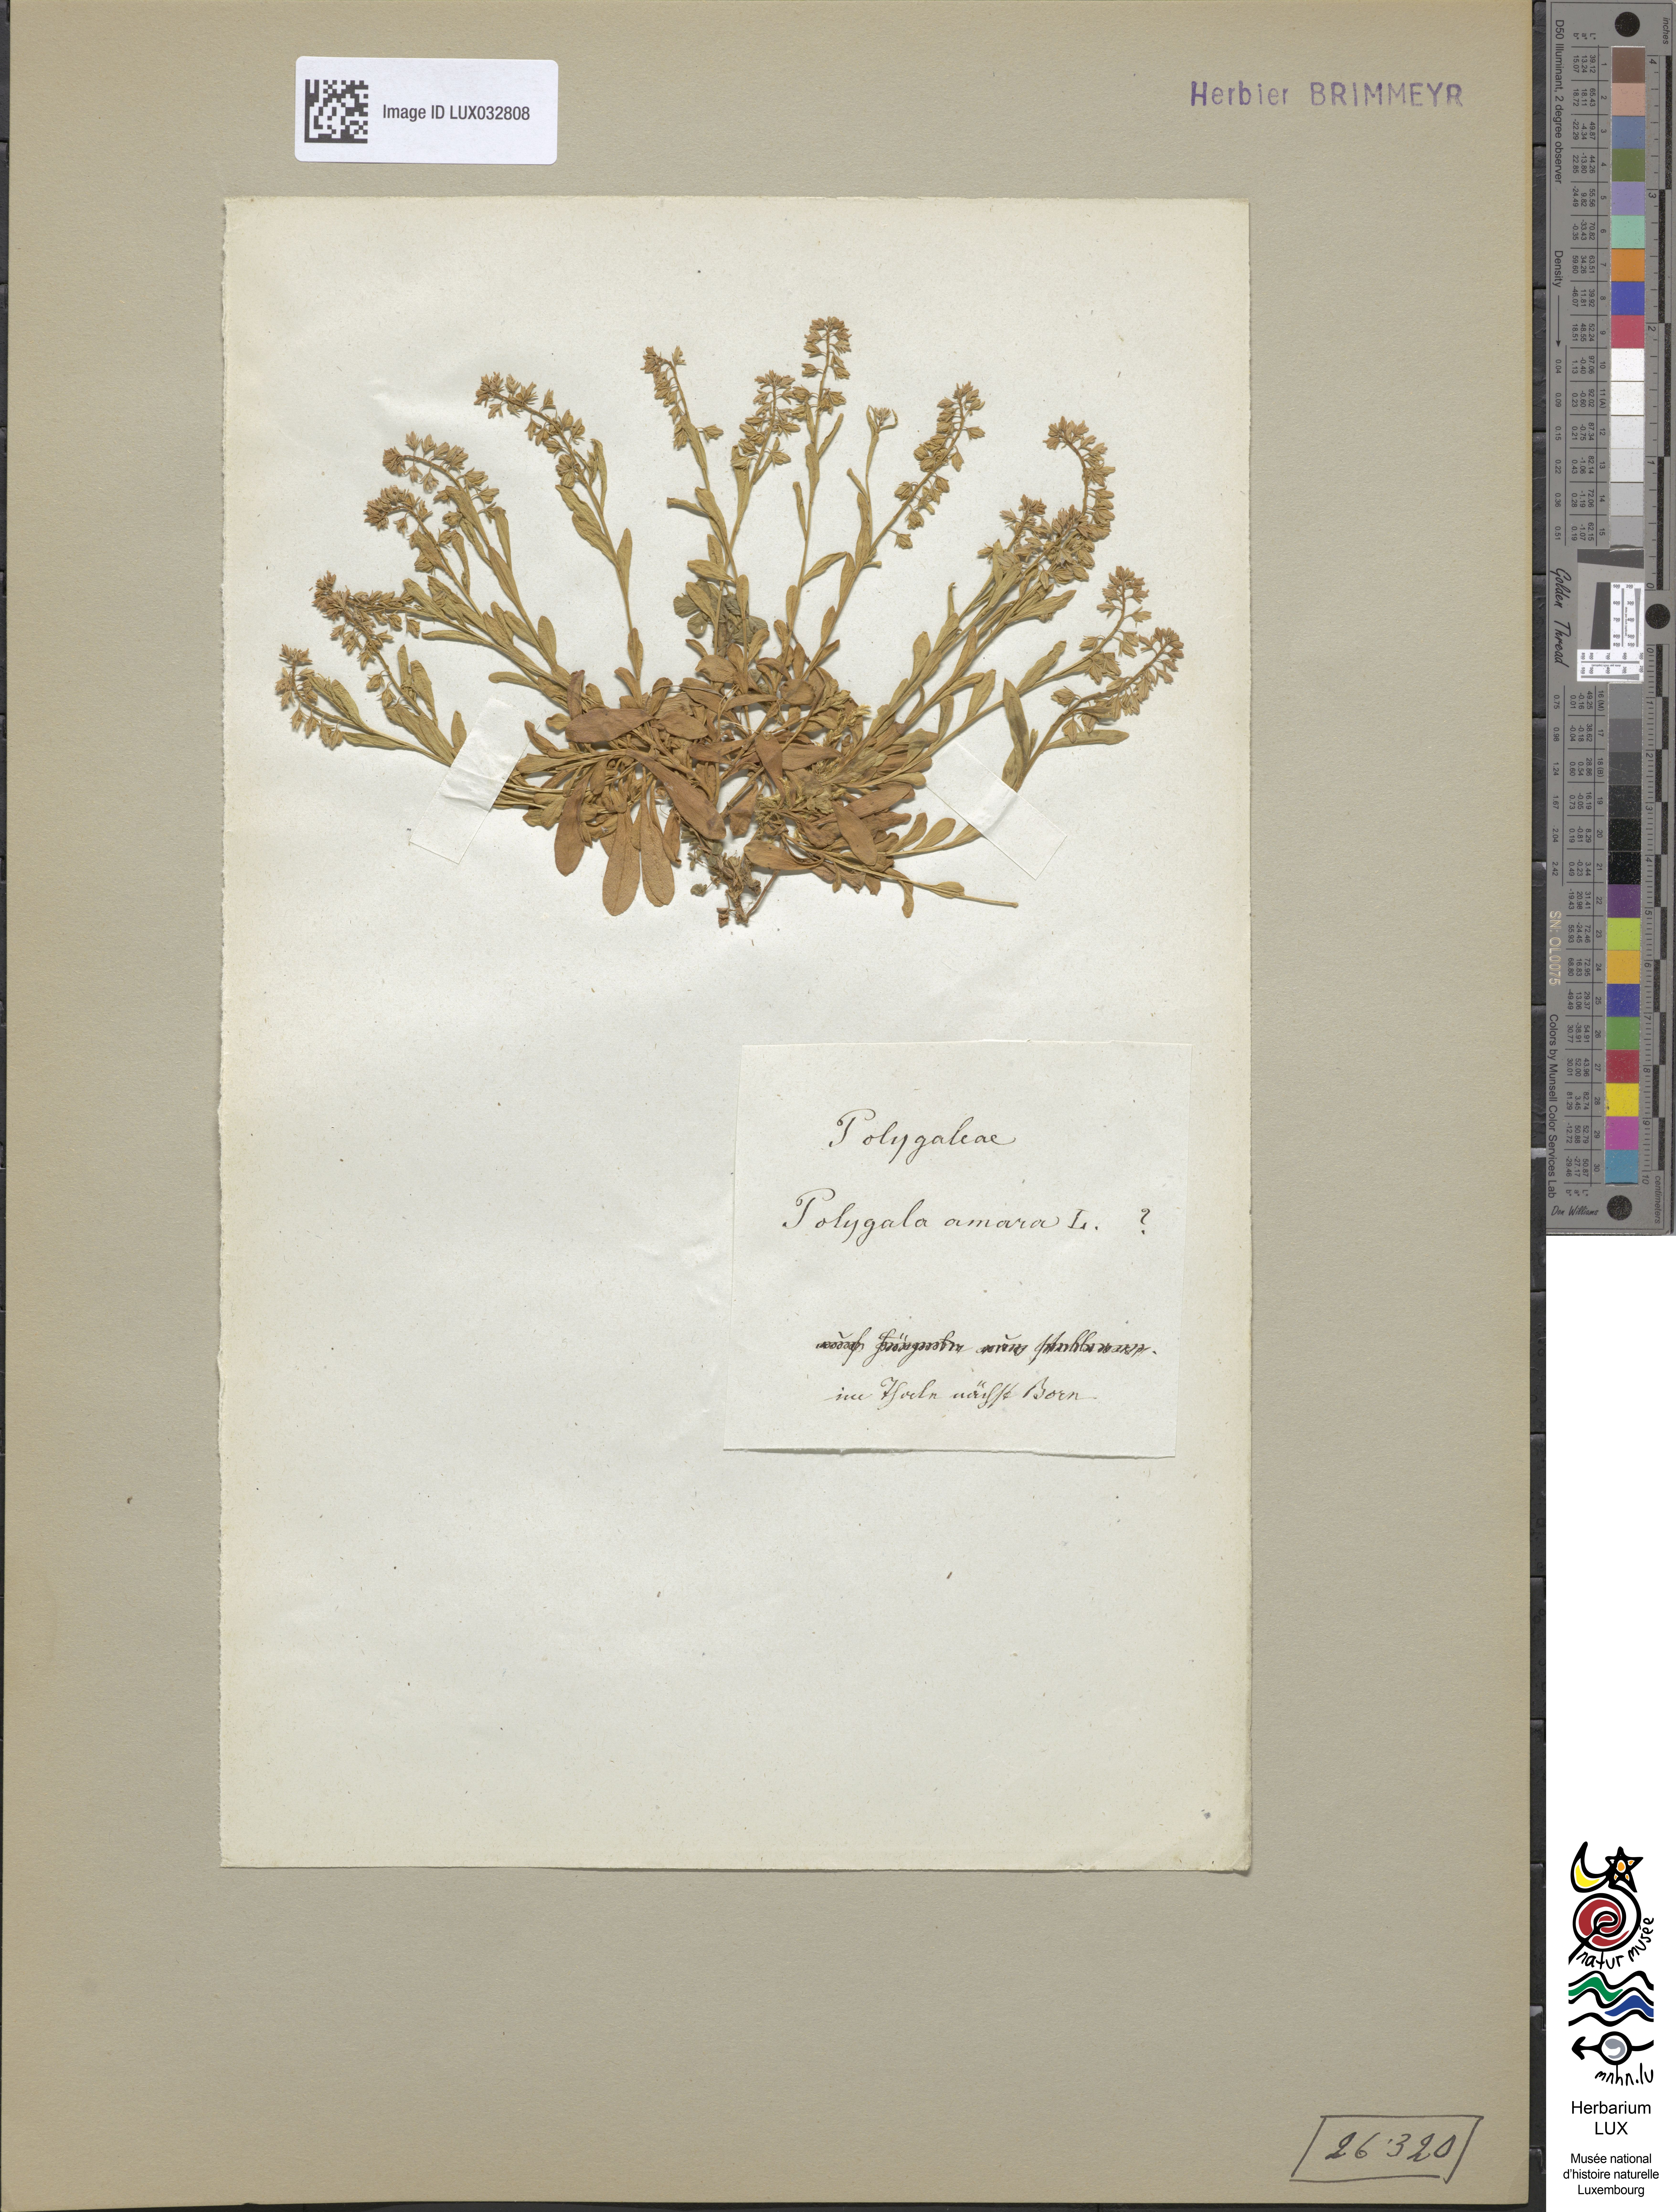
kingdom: Plantae
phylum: Tracheophyta
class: Magnoliopsida
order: Fabales
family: Polygalaceae
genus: Polygala
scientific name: Polygala amara
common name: Milkwort
